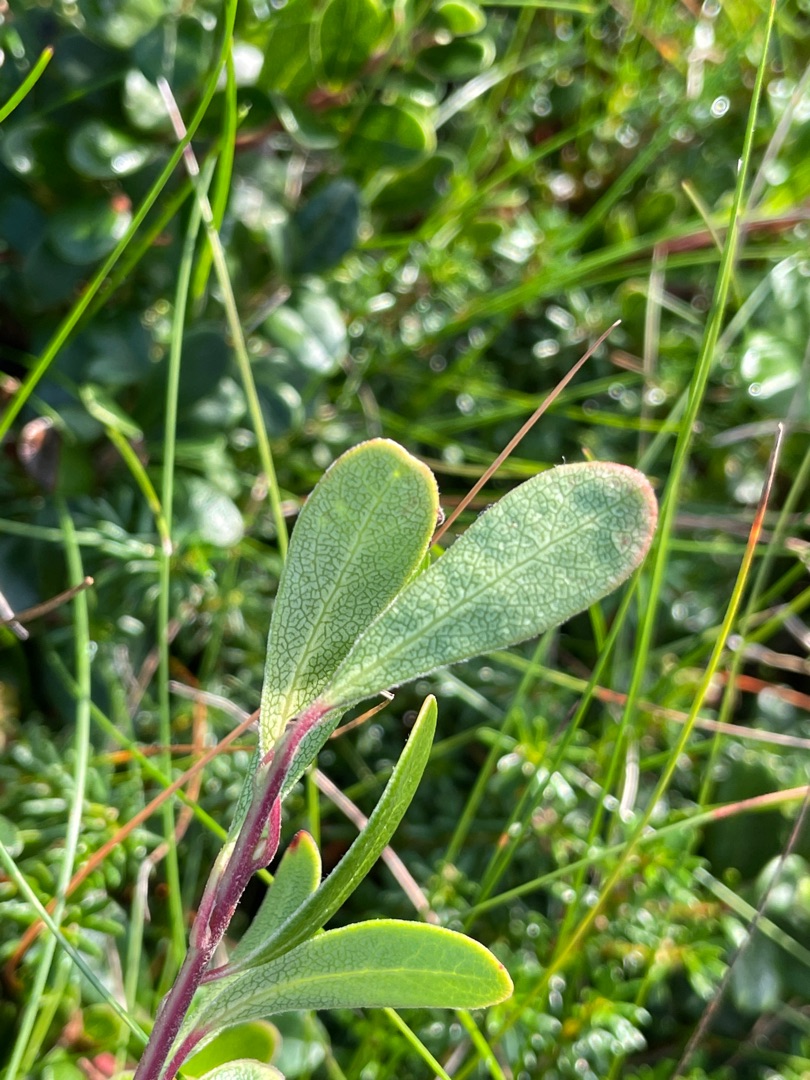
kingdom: Plantae
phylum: Tracheophyta
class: Magnoliopsida
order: Ericales
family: Ericaceae
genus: Arctostaphylos
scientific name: Arctostaphylos uva-ursi
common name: Hede-melbærris
